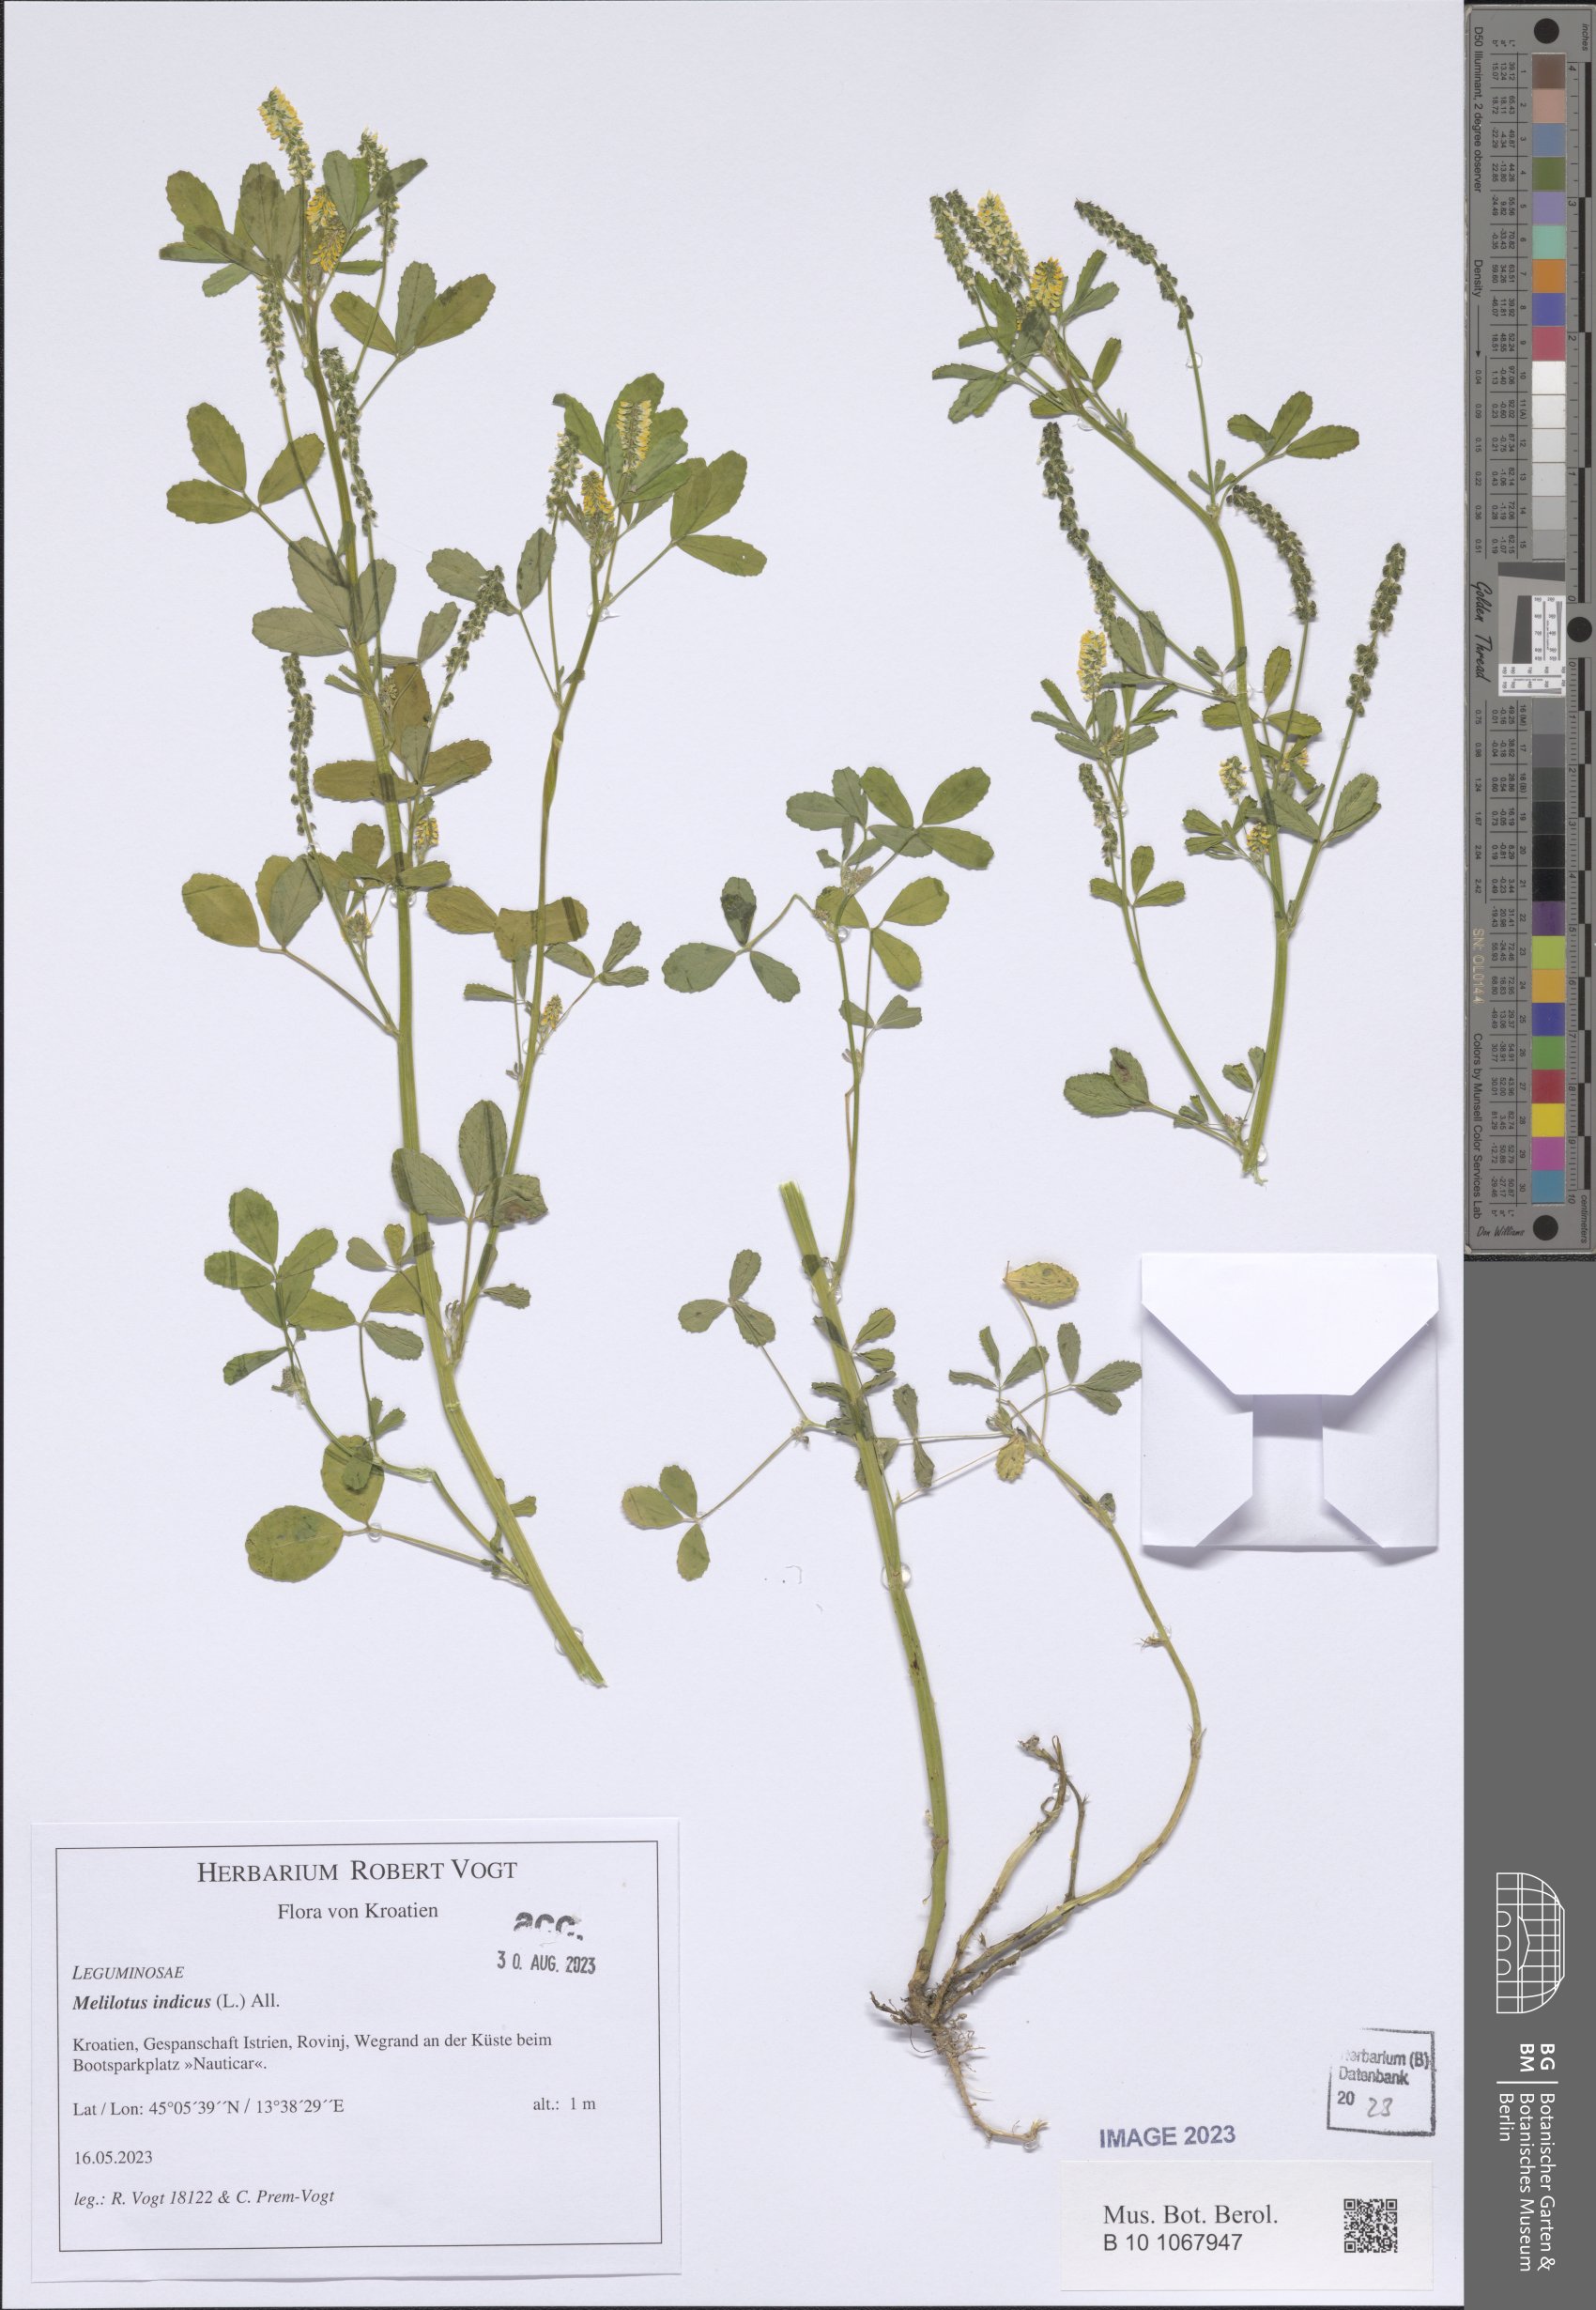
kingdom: Plantae
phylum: Tracheophyta
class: Magnoliopsida
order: Fabales
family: Fabaceae
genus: Melilotus
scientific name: Melilotus indicus
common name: Small melilot
